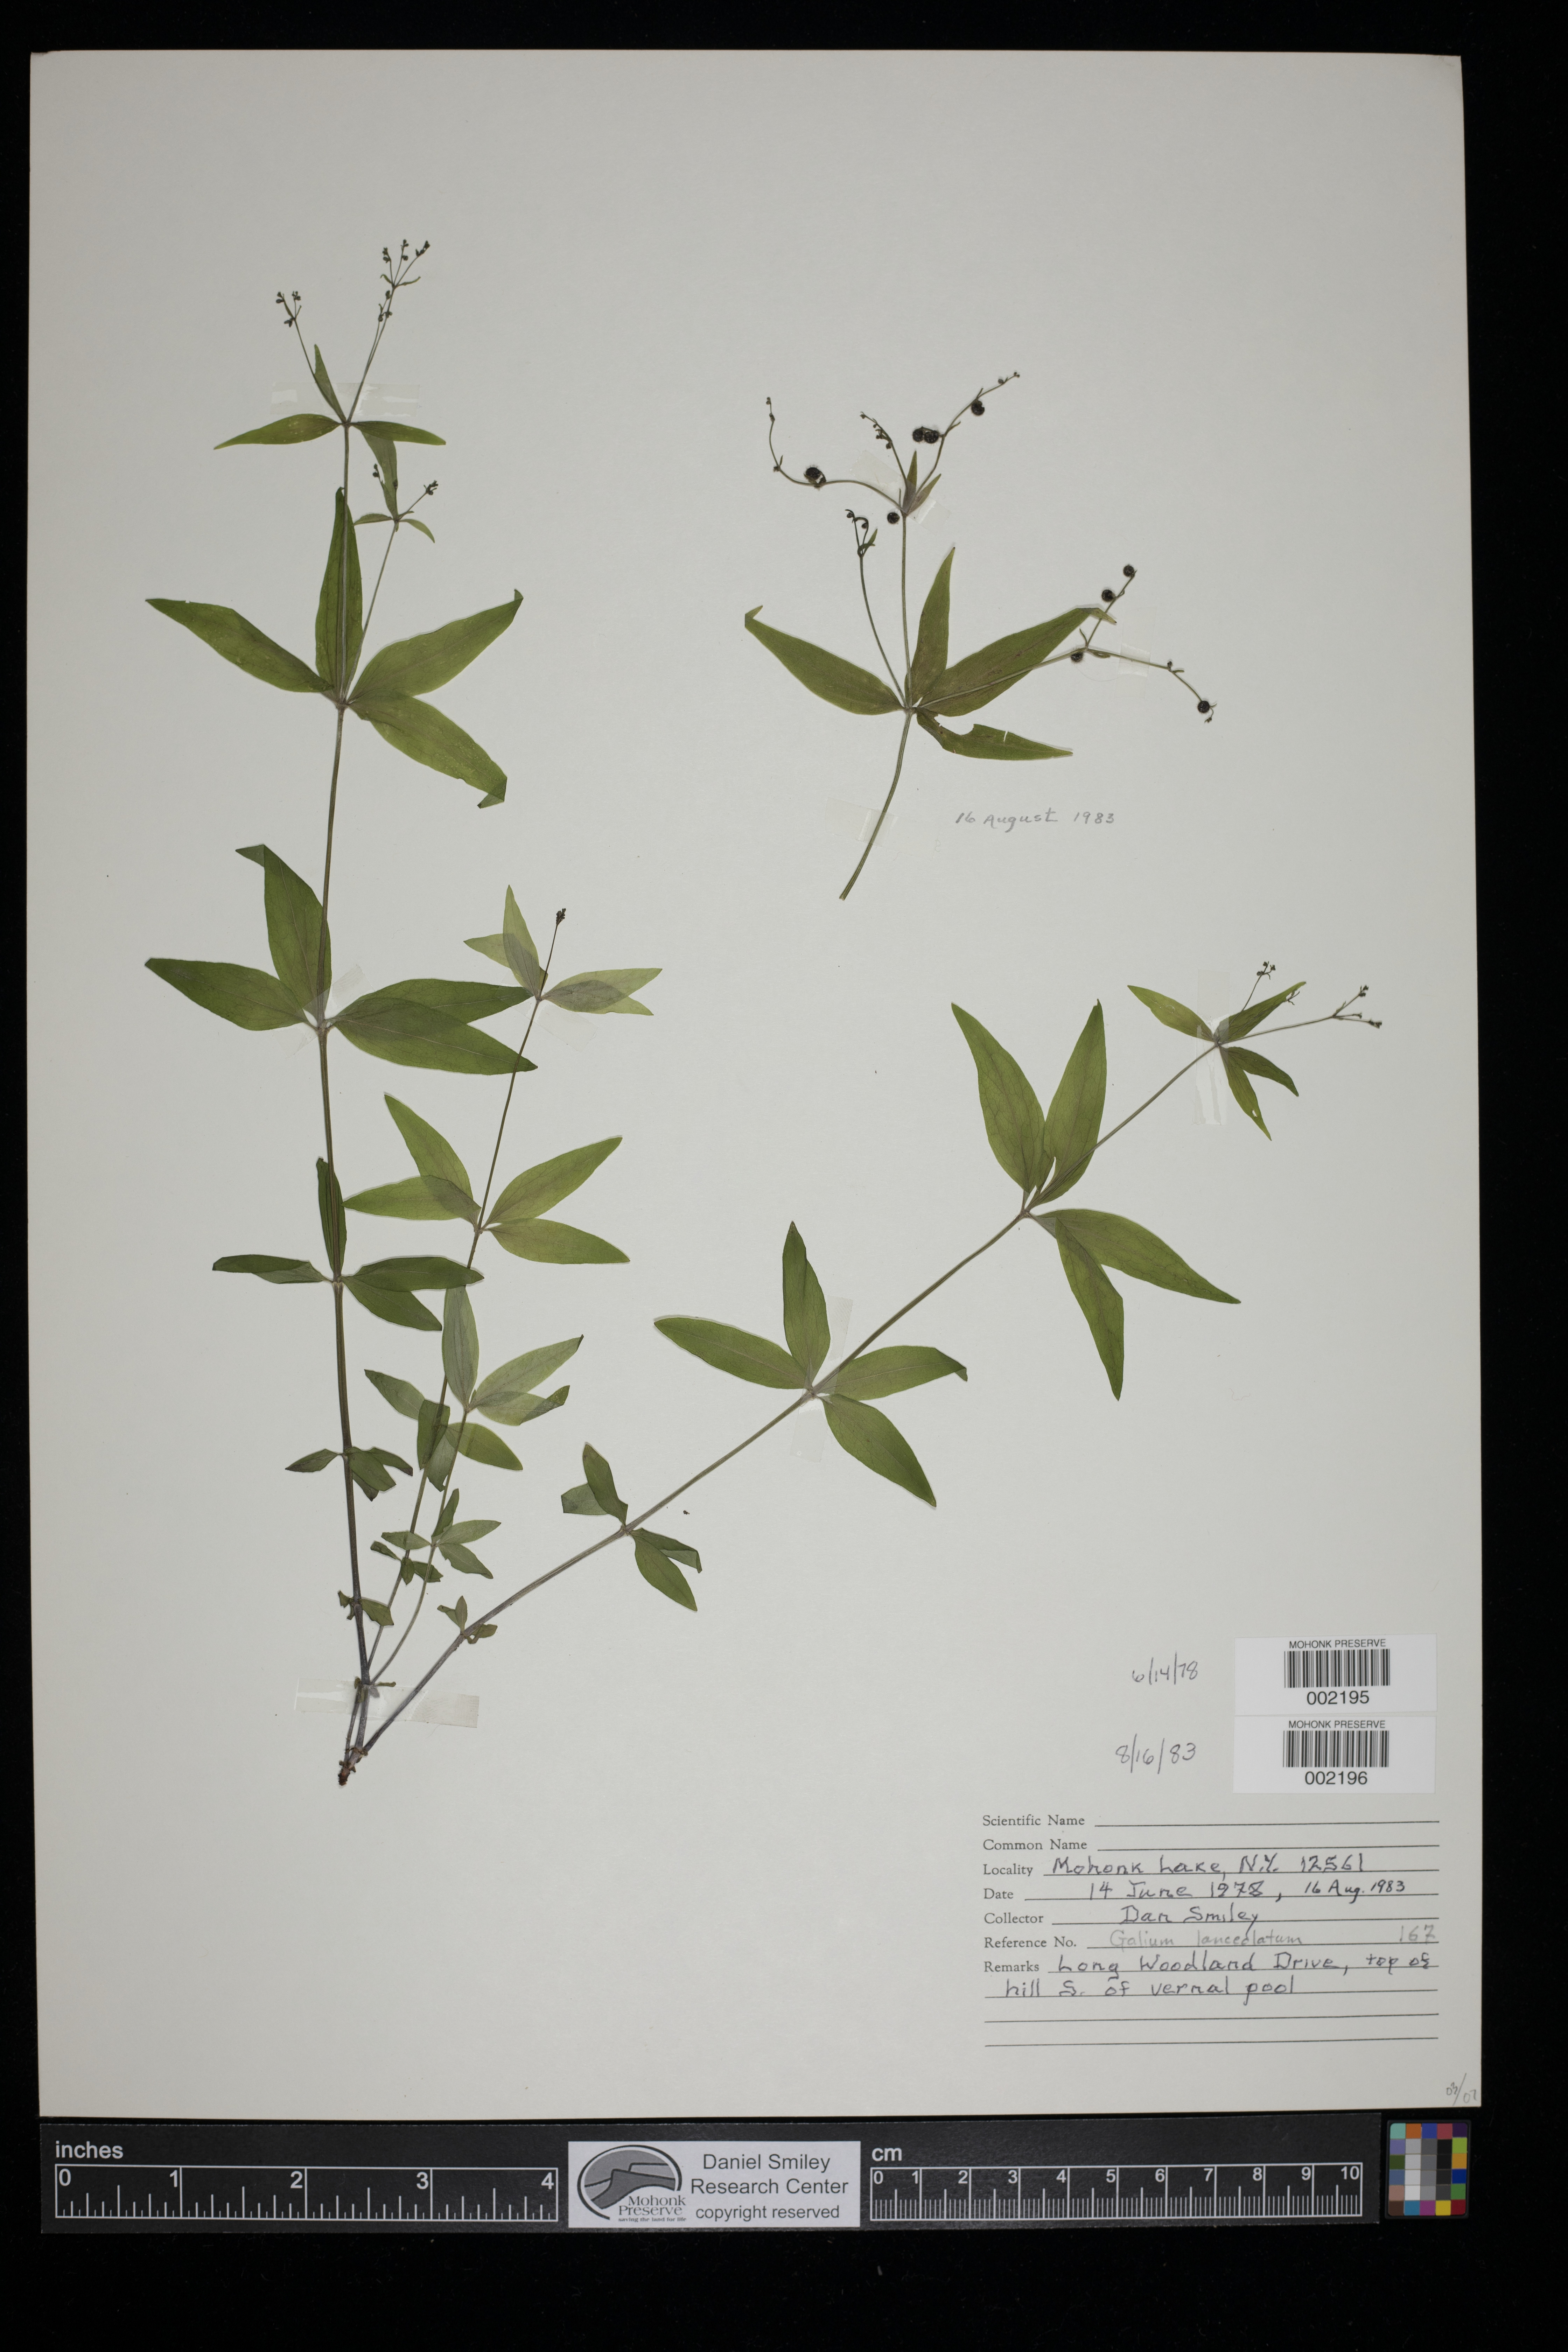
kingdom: Plantae
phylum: Tracheophyta
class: Magnoliopsida
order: Gentianales
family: Rubiaceae
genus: Galium
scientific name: Galium lanceolatum
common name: Lance-leaved wild licorice
